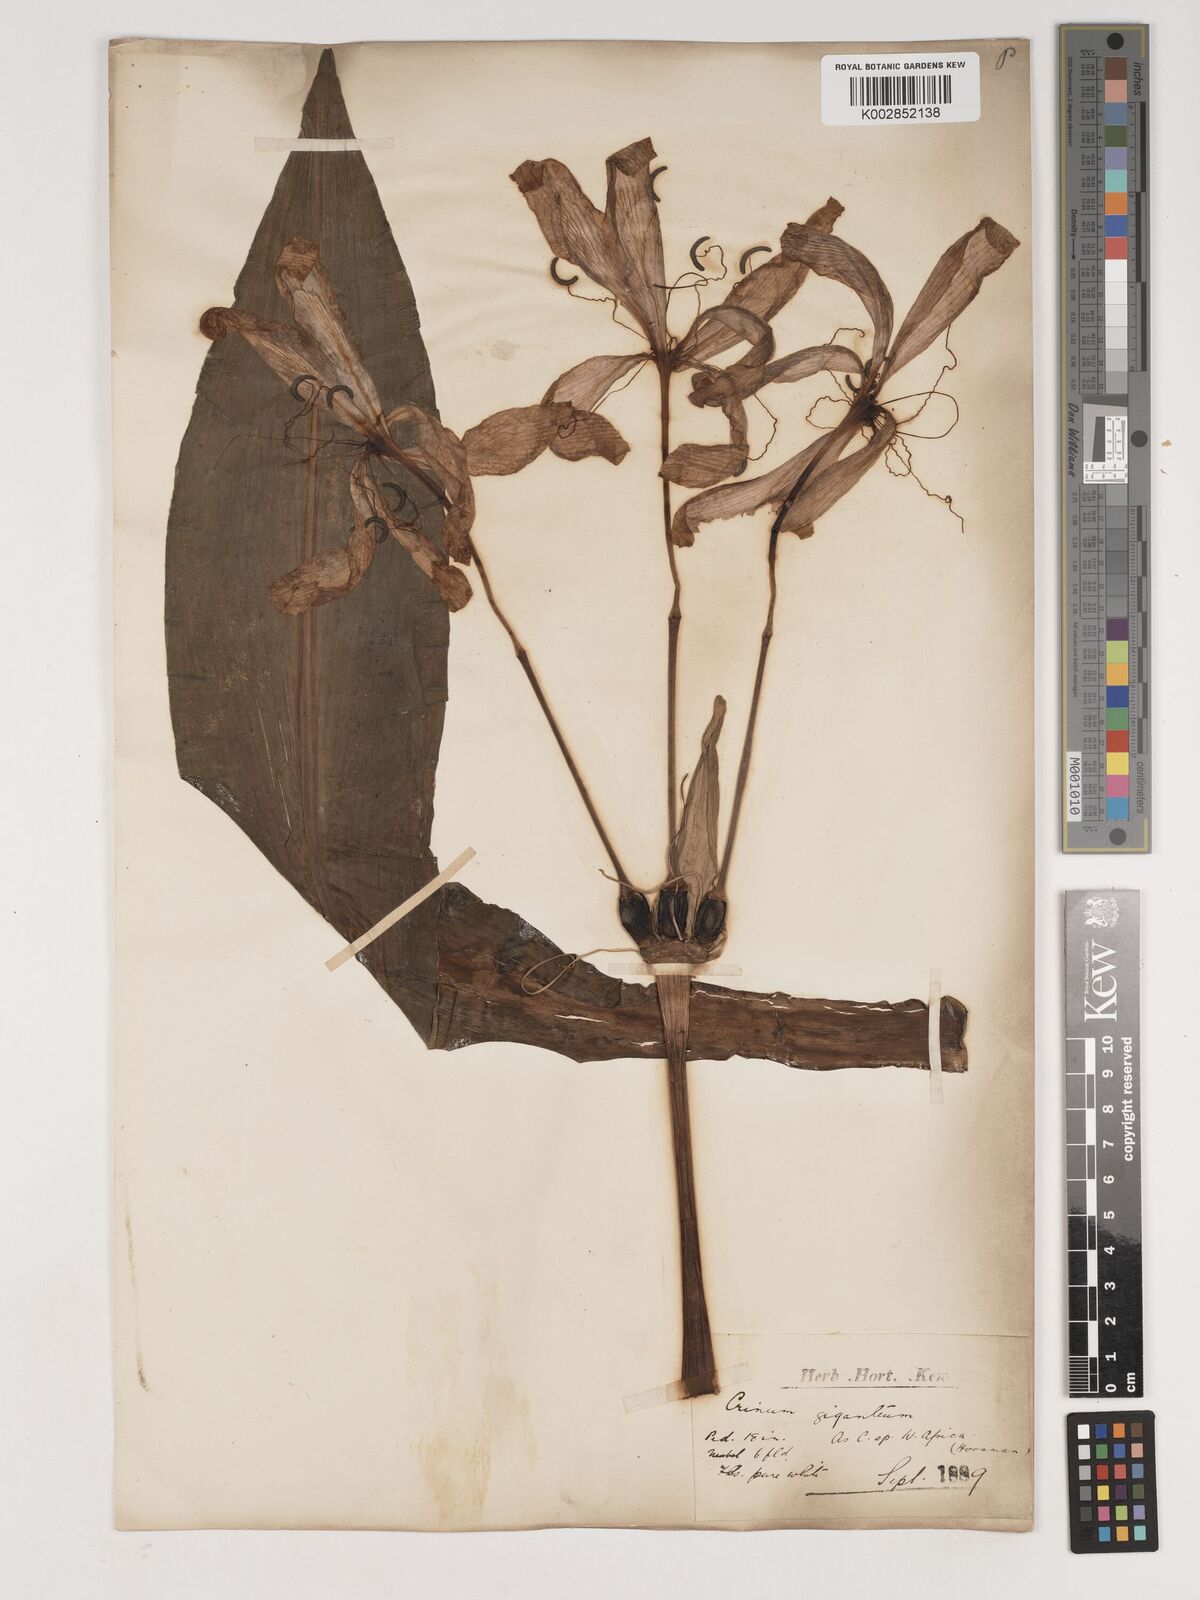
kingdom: Plantae
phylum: Tracheophyta
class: Liliopsida
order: Asparagales
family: Amaryllidaceae
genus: Crinum
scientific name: Crinum jagus
